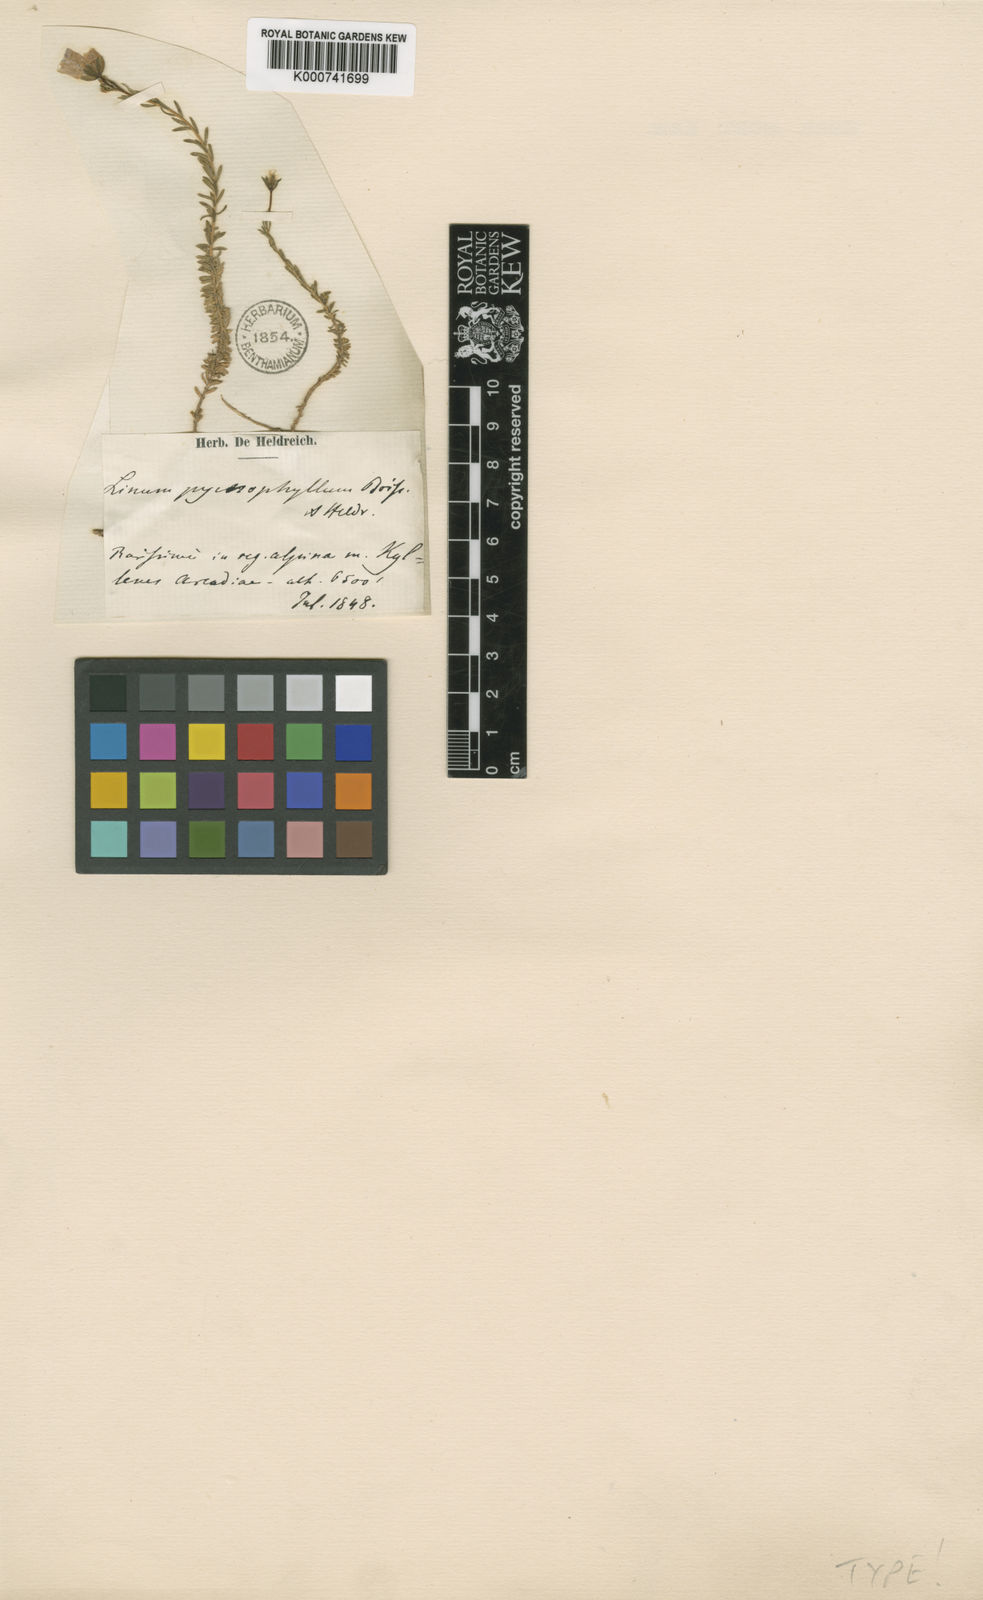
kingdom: Plantae
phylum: Tracheophyta
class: Magnoliopsida
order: Malpighiales
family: Linaceae
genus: Linum
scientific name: Linum punctatum
